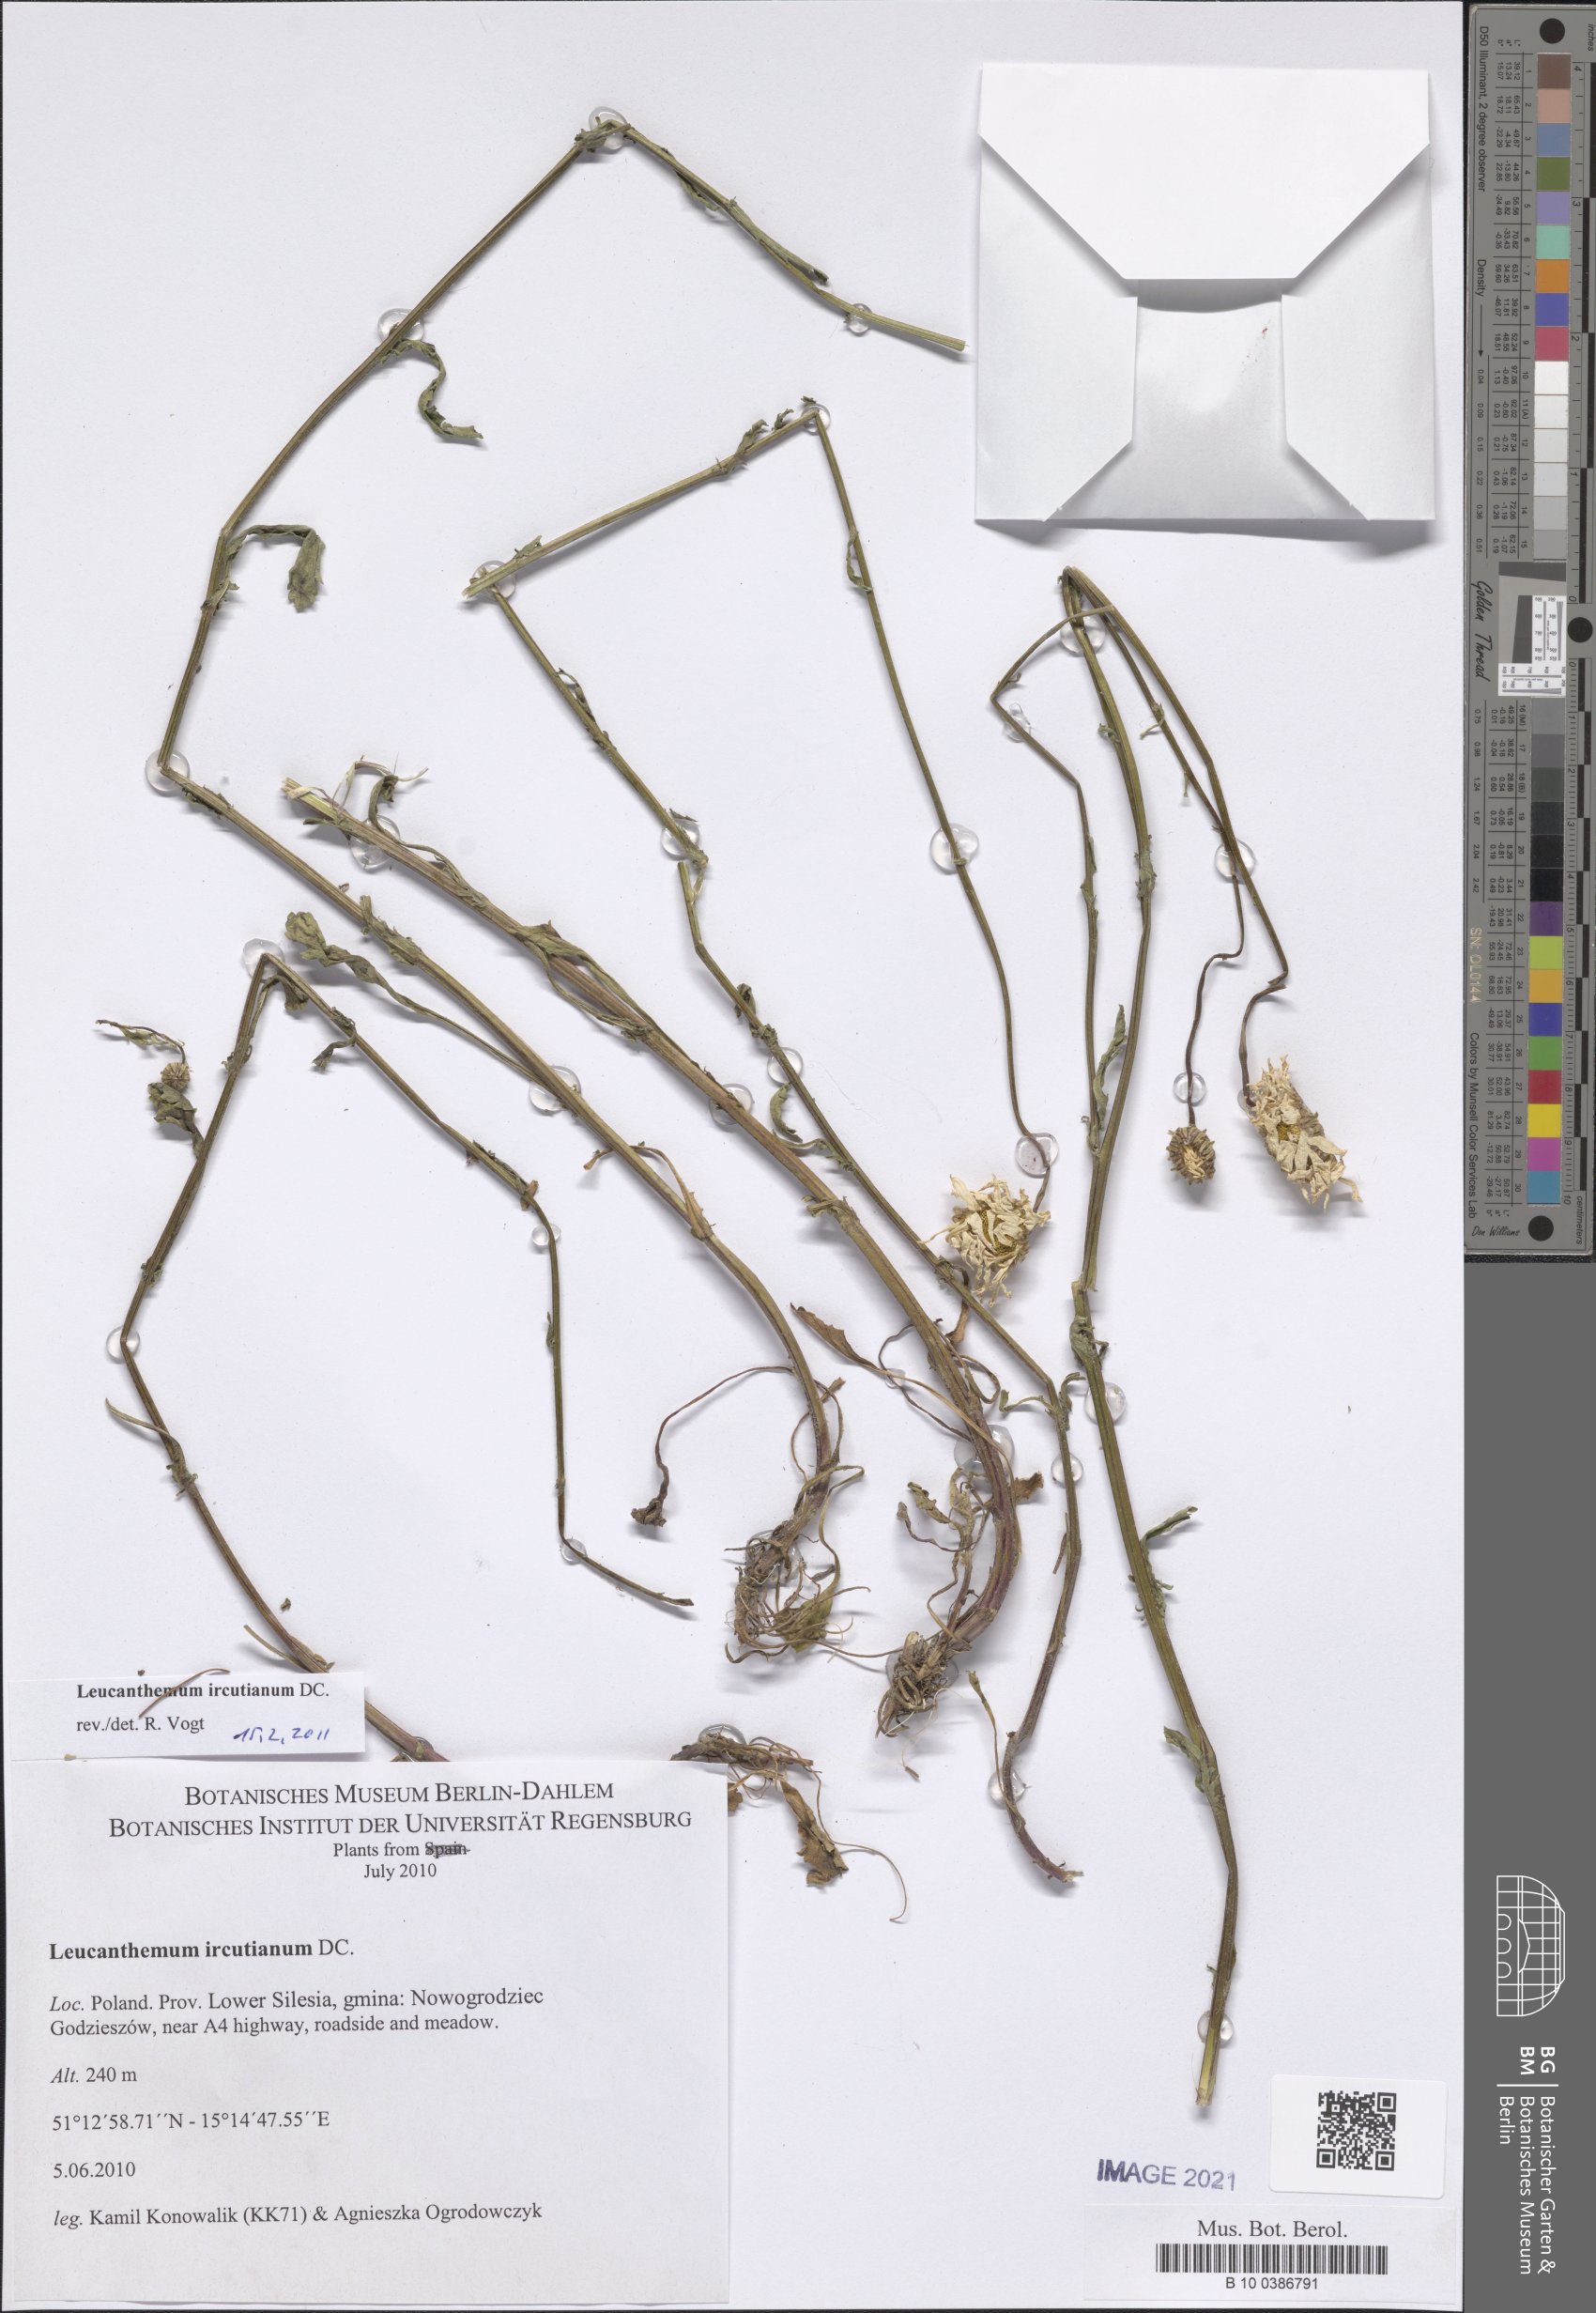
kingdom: Plantae
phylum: Tracheophyta
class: Magnoliopsida
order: Asterales
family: Asteraceae
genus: Leucanthemum
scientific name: Leucanthemum vulgare
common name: Oxeye daisy
